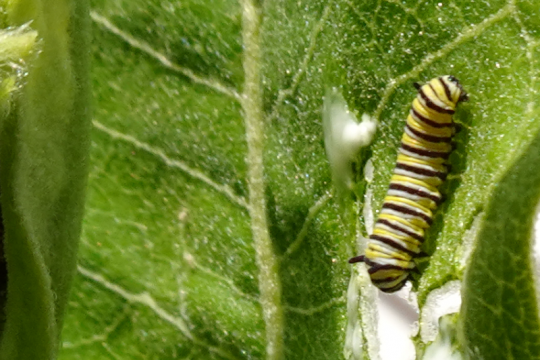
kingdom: Animalia
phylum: Arthropoda
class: Insecta
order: Lepidoptera
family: Nymphalidae
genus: Danaus
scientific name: Danaus plexippus
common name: Monarch
